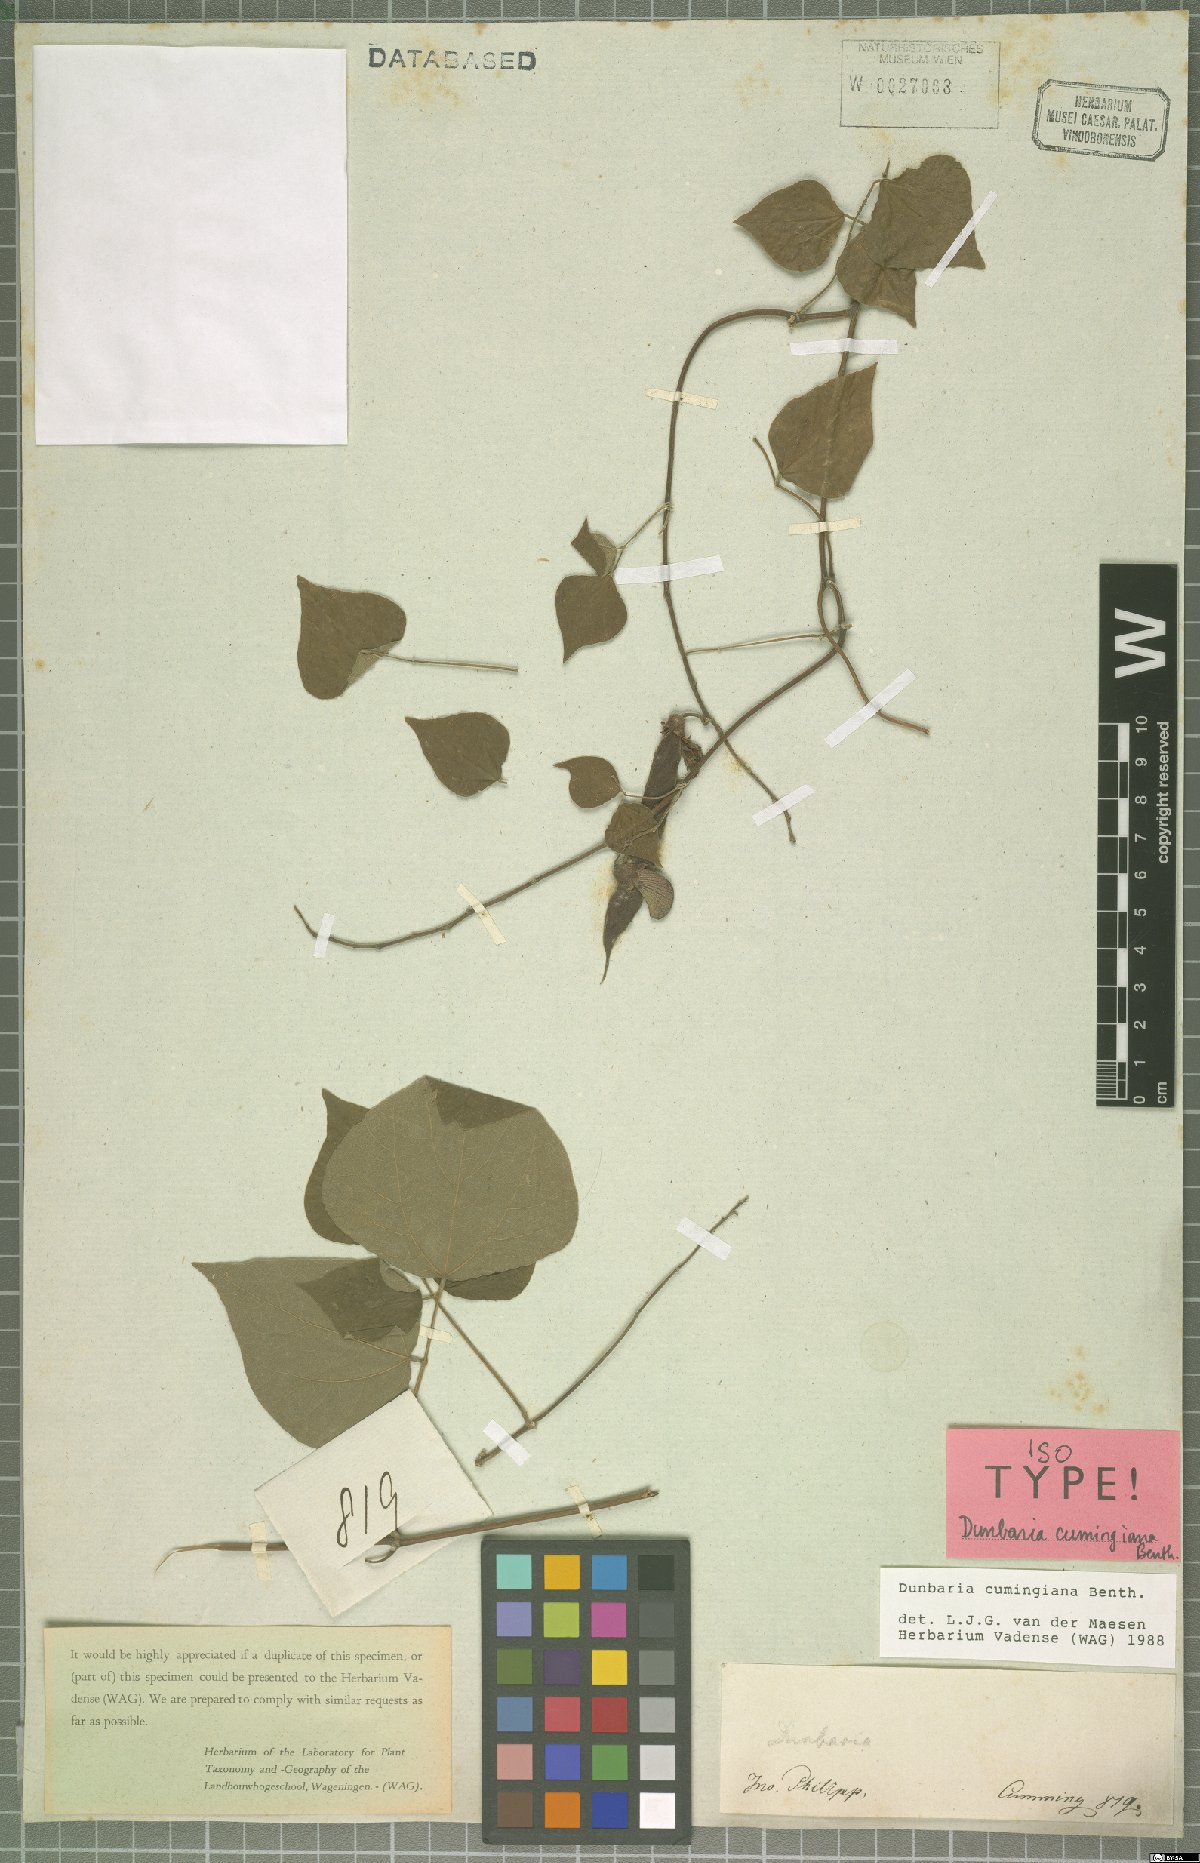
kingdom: Plantae
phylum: Tracheophyta
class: Magnoliopsida
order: Fabales
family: Fabaceae
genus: Dunbaria
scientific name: Dunbaria cumingiana
